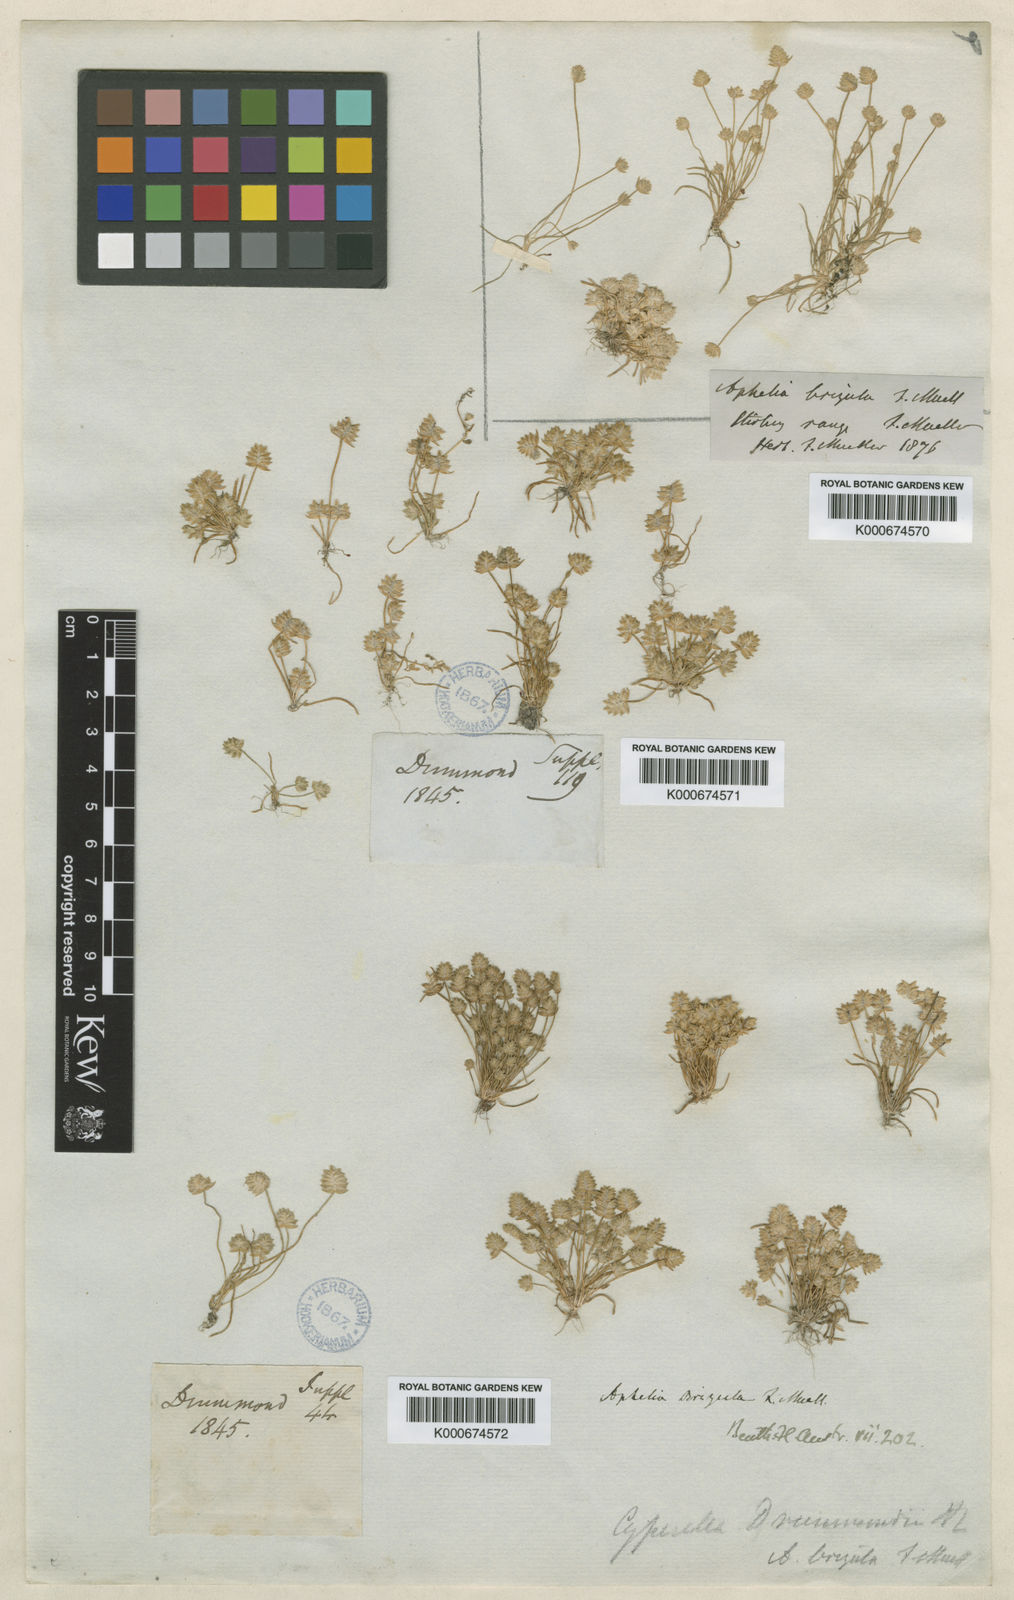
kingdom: Plantae
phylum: Tracheophyta
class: Liliopsida
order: Poales
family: Restionaceae
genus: Aphelia
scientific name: Aphelia brizula
